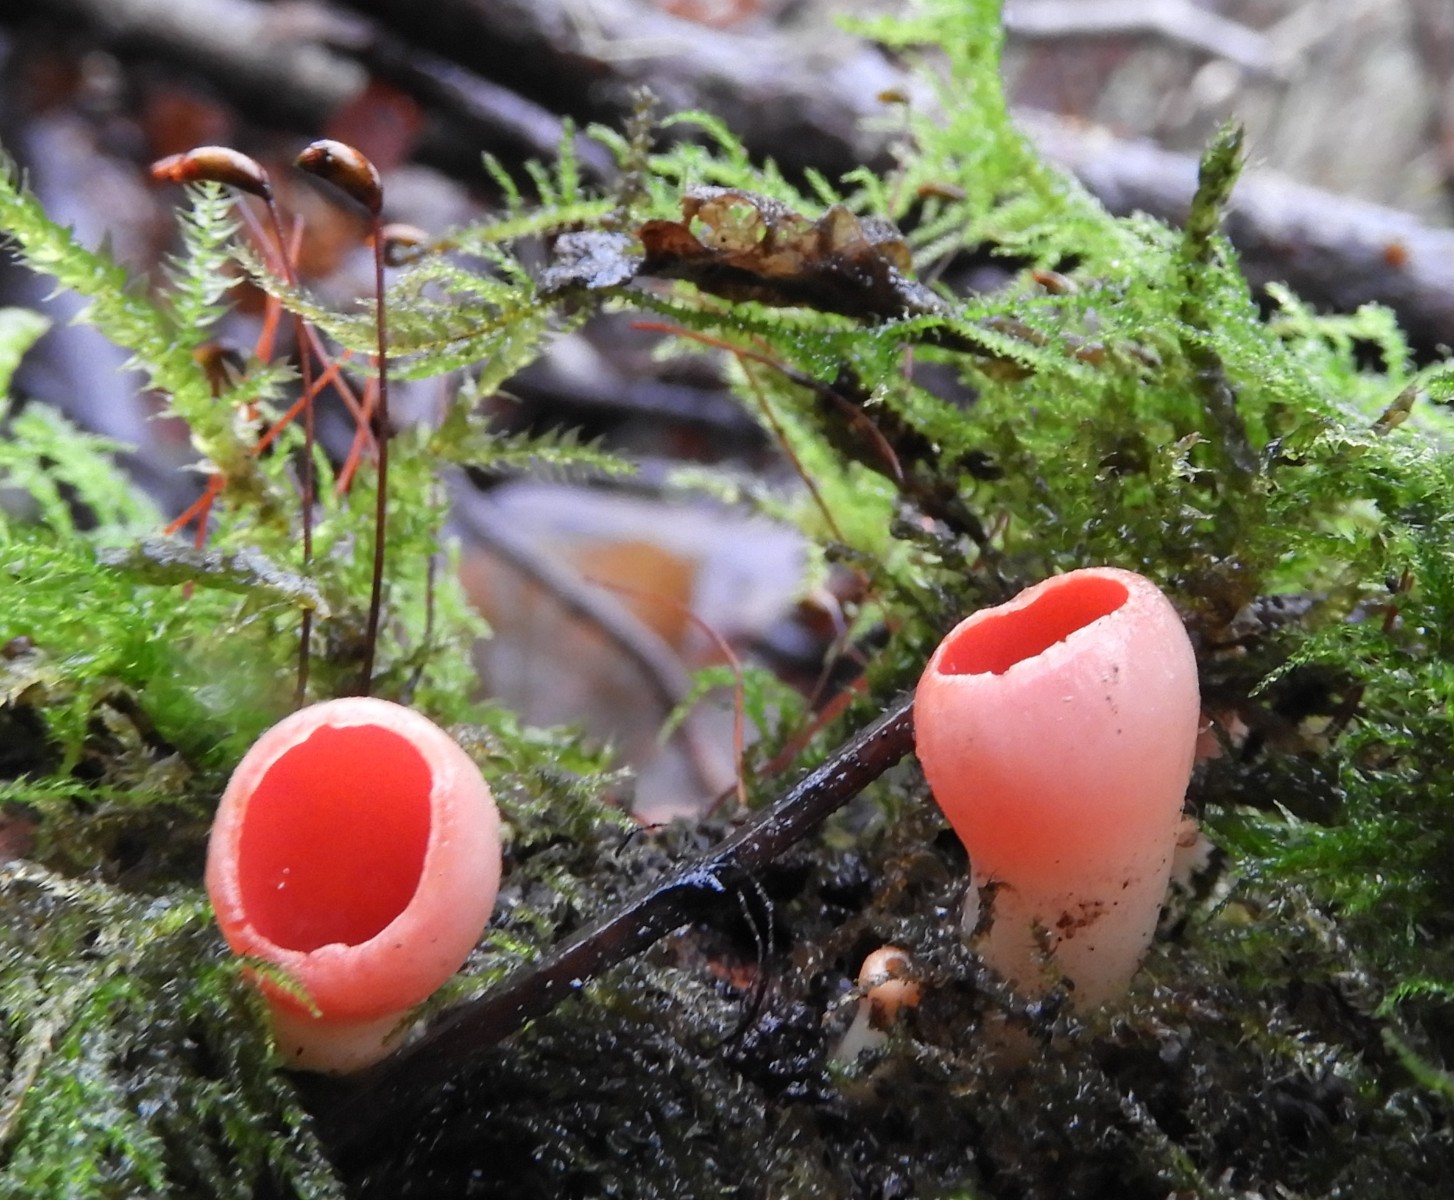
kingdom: Fungi
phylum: Ascomycota
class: Pezizomycetes
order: Pezizales
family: Sarcoscyphaceae
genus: Sarcoscypha
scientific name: Sarcoscypha austriaca
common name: krølhåret pragtbæger
